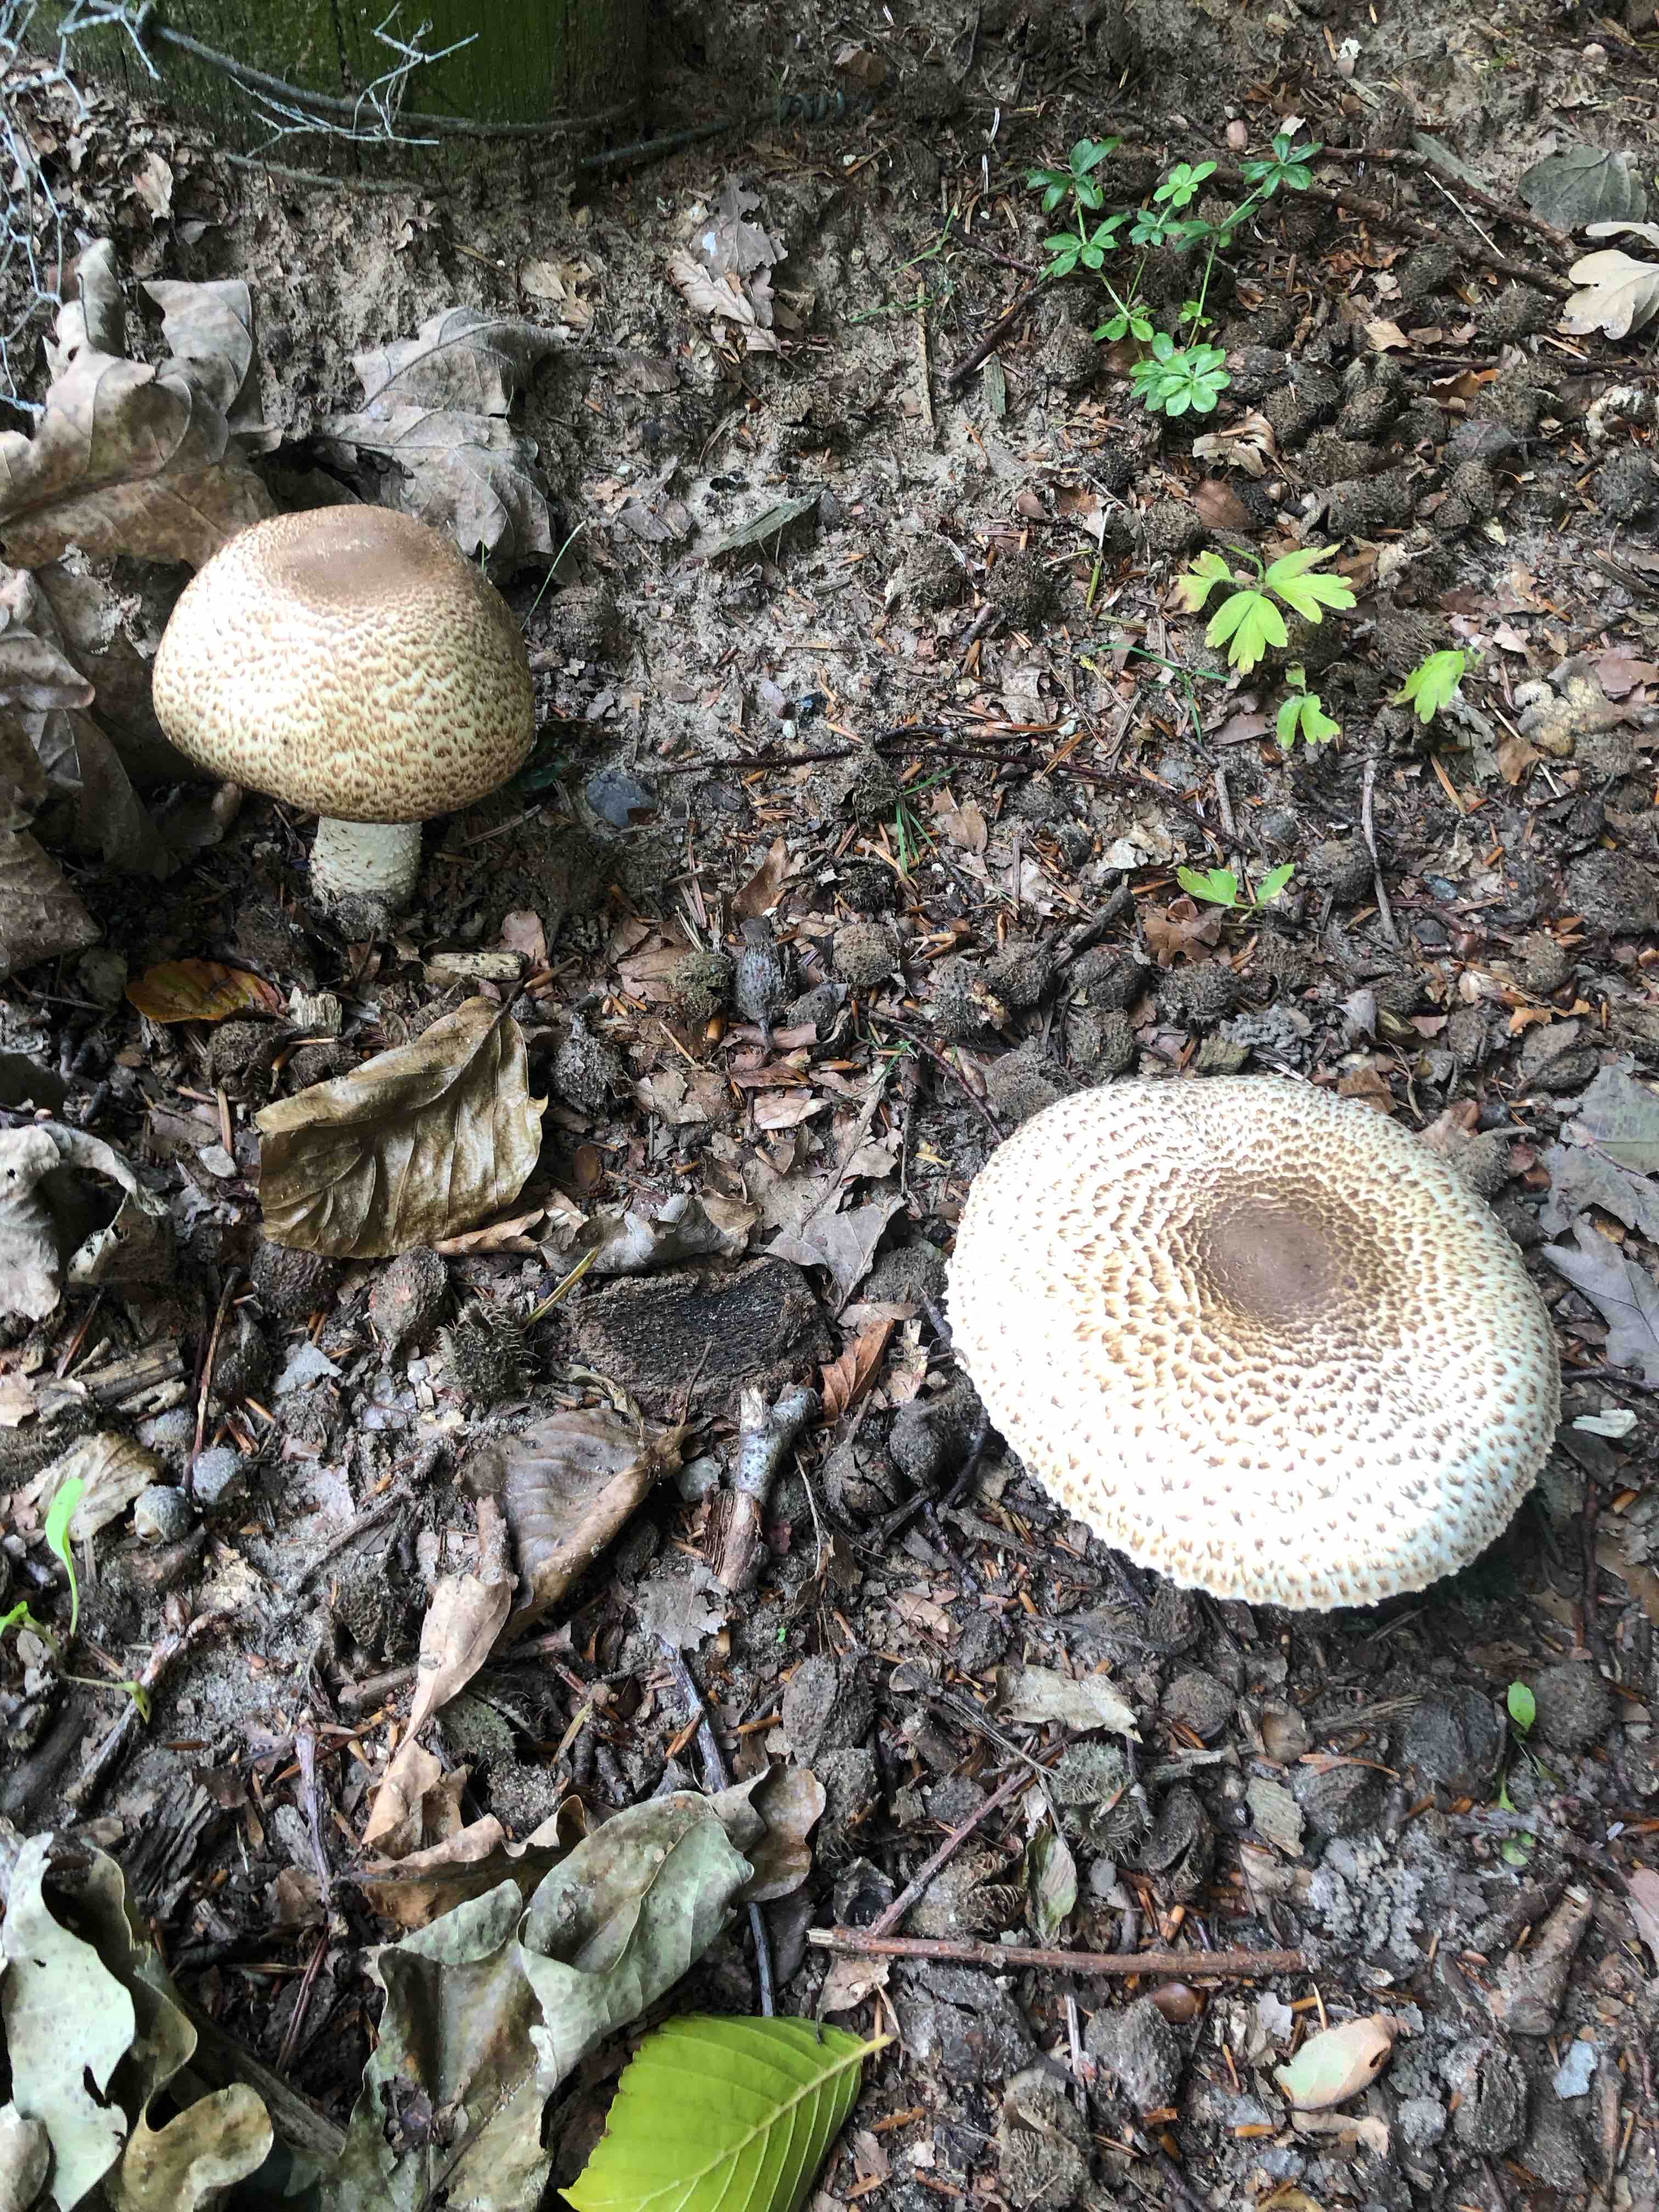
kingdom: Fungi
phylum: Basidiomycota
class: Agaricomycetes
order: Agaricales
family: Agaricaceae
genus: Agaricus
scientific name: Agaricus augustus
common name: prægtig champignon
